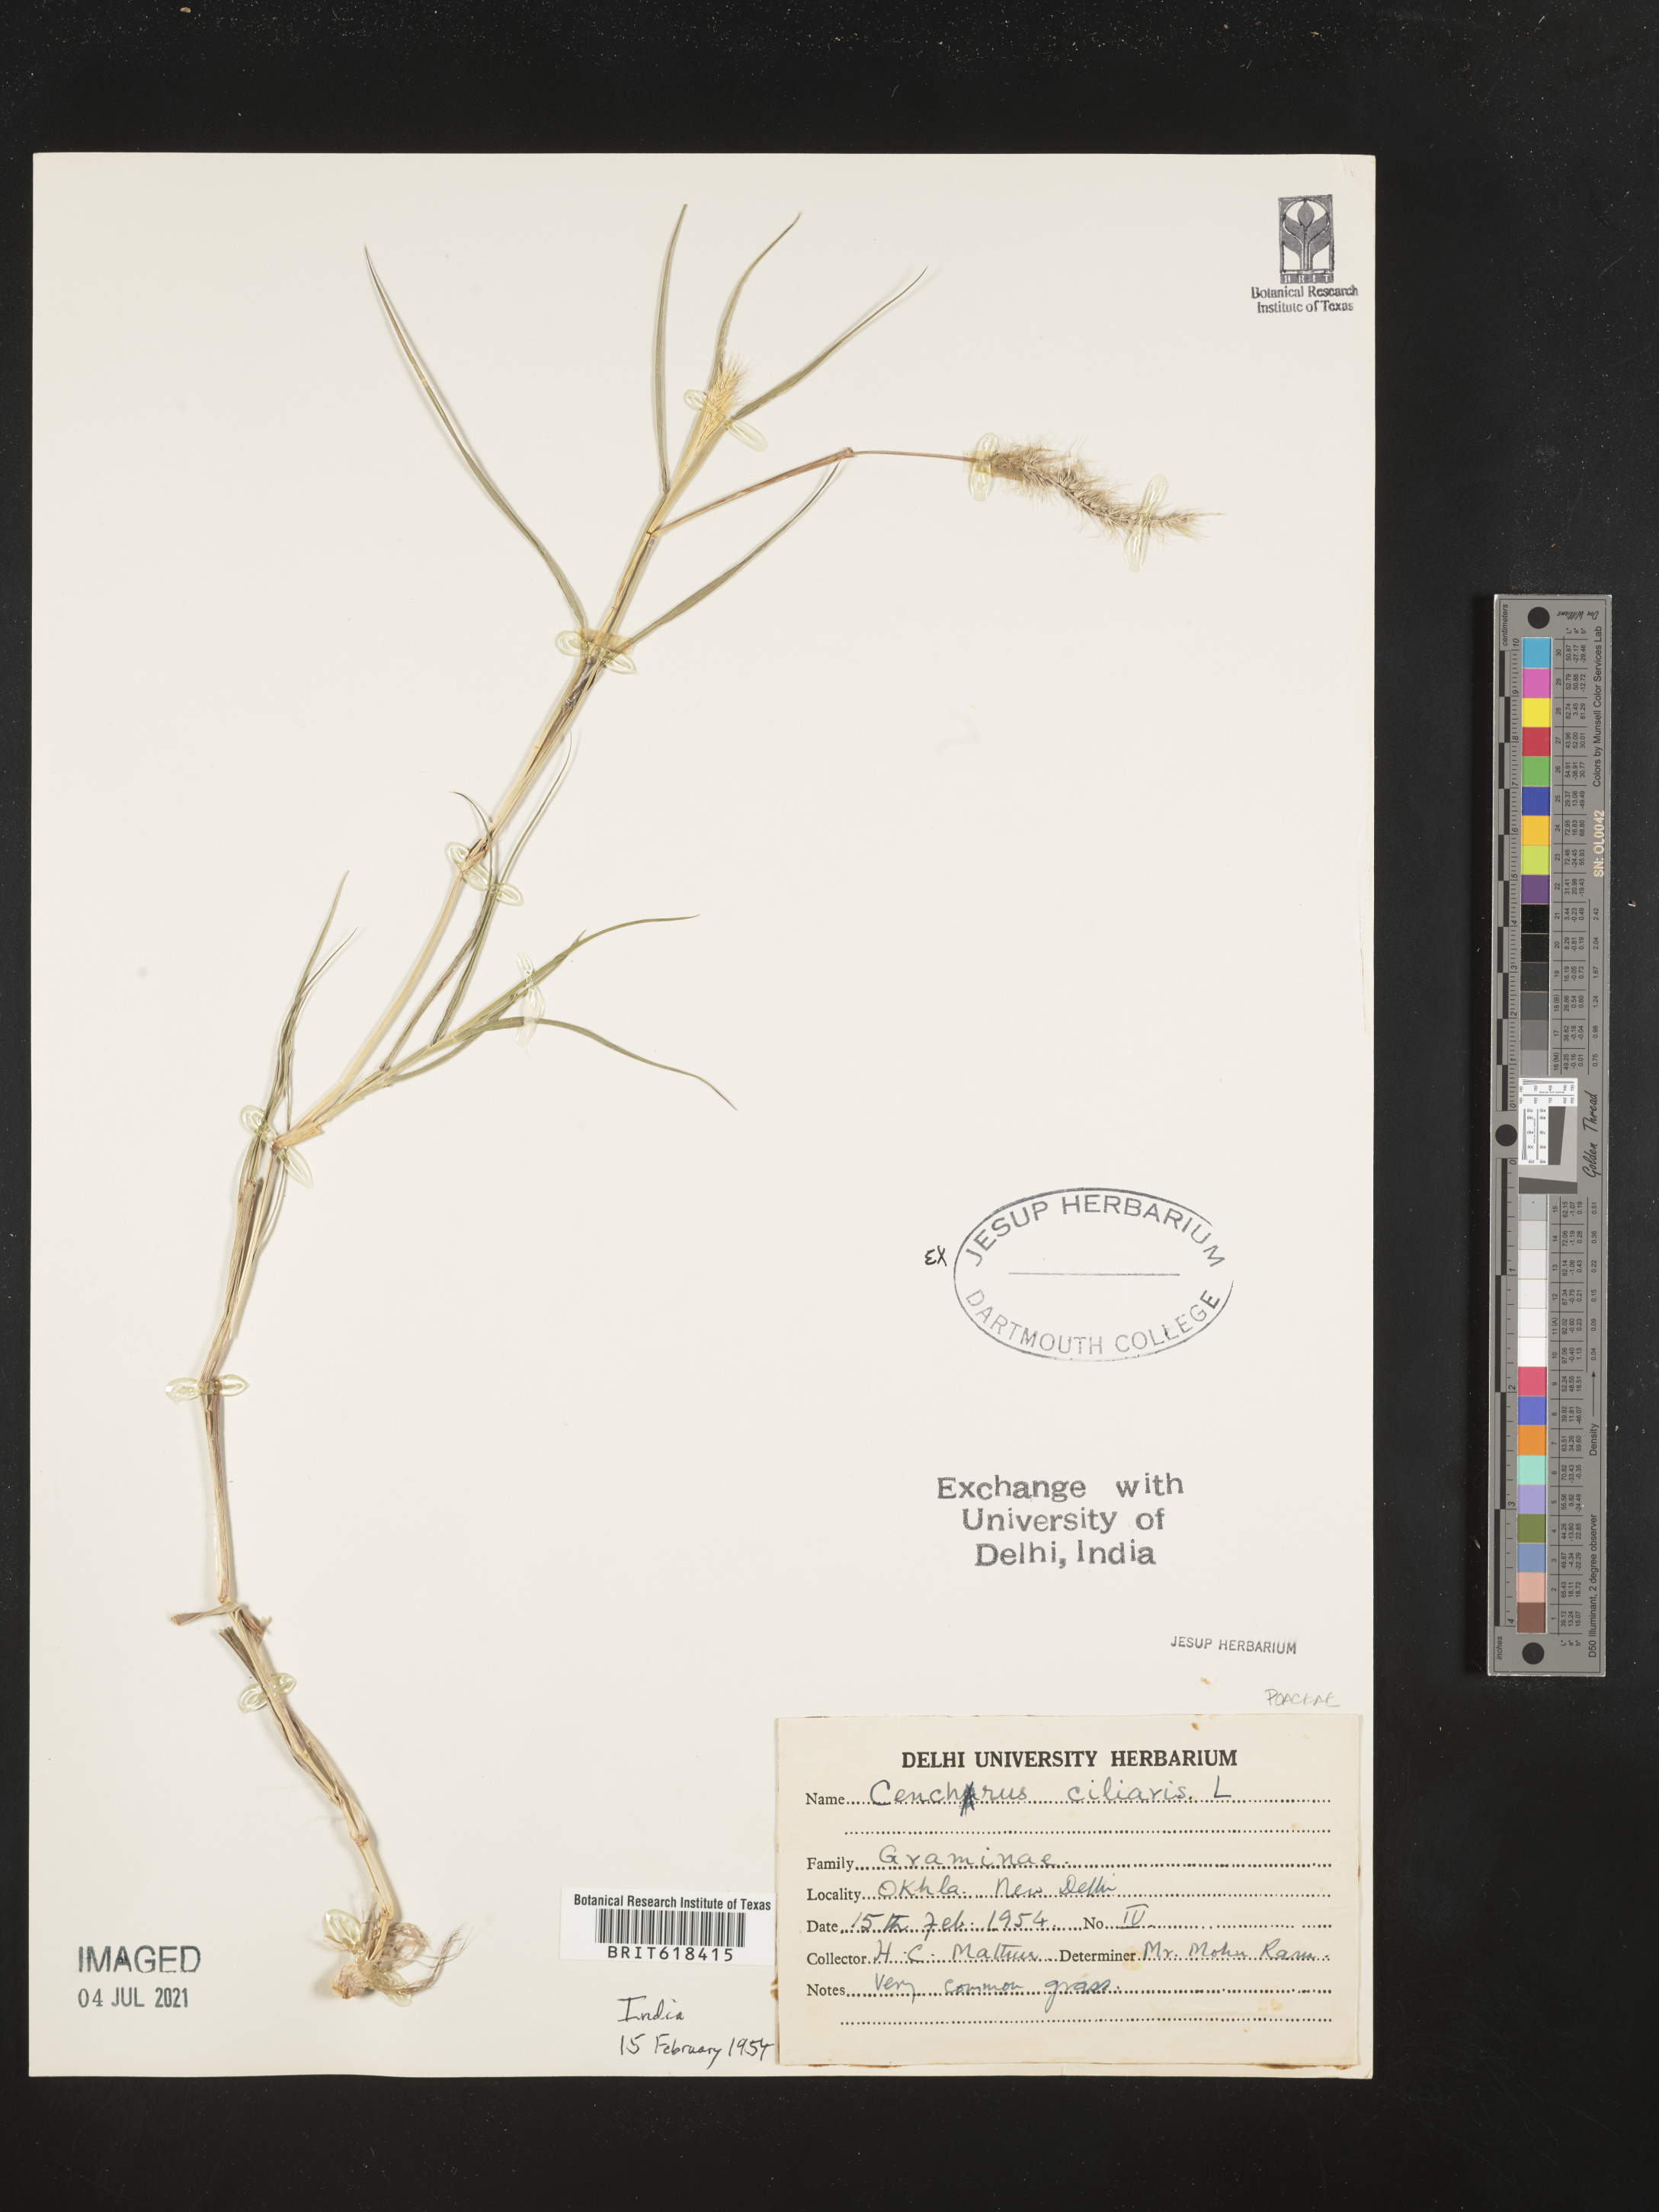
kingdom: Plantae
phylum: Tracheophyta
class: Liliopsida
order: Poales
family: Poaceae
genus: Cenchrus
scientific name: Cenchrus ciliaris
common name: Buffelgrass
